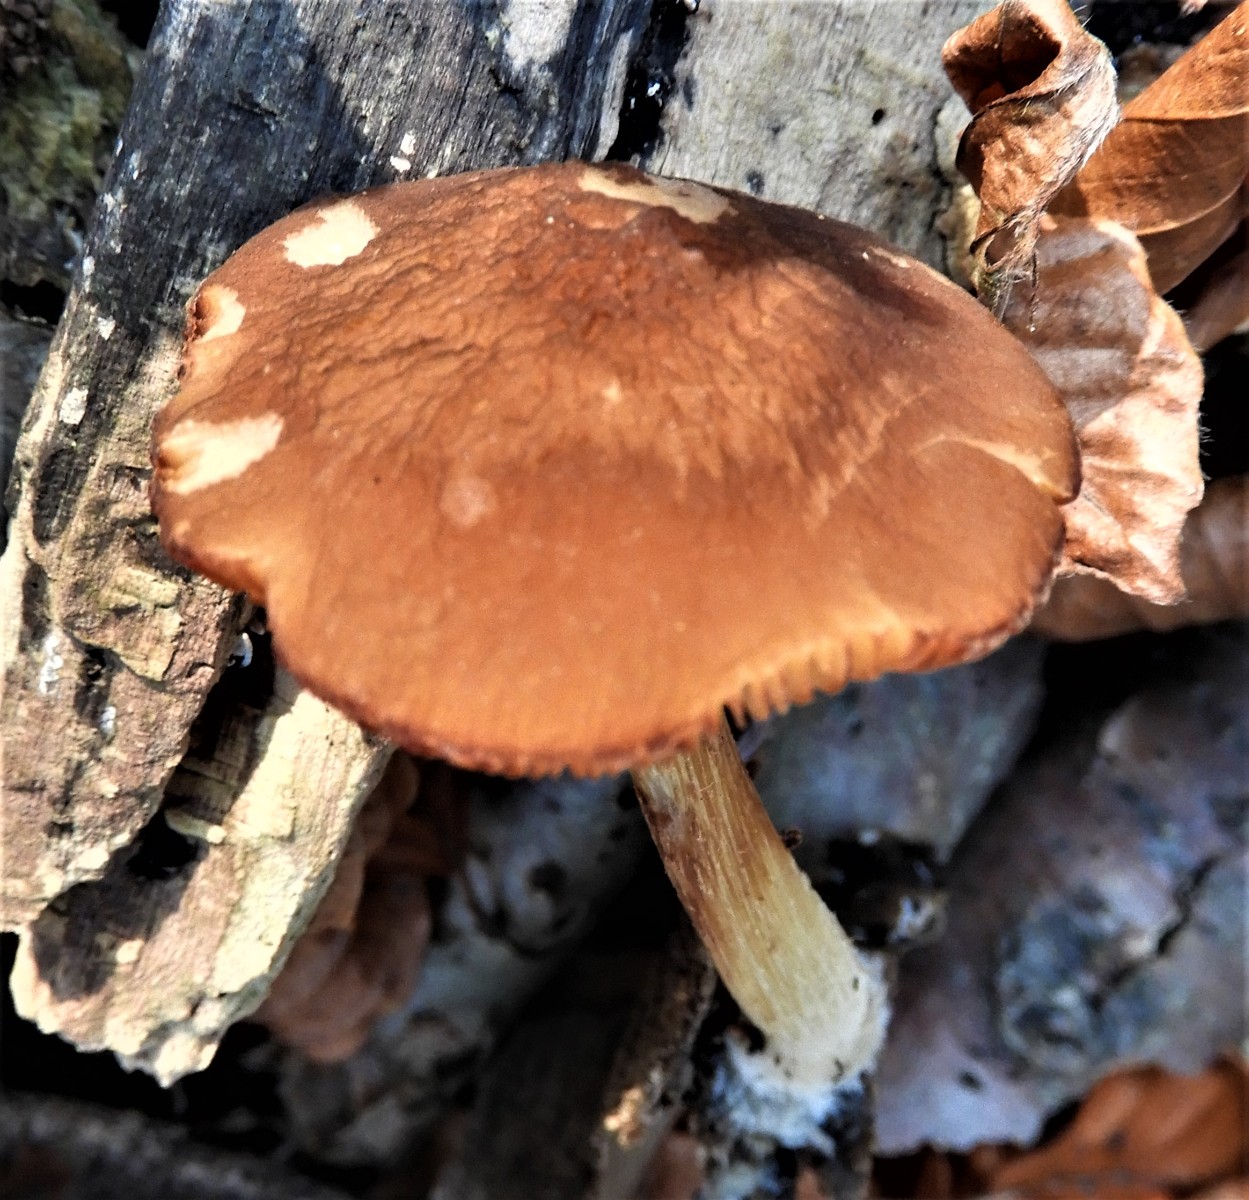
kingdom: Fungi
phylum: Basidiomycota
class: Agaricomycetes
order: Agaricales
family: Pluteaceae
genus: Pluteus
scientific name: Pluteus phlebophorus
